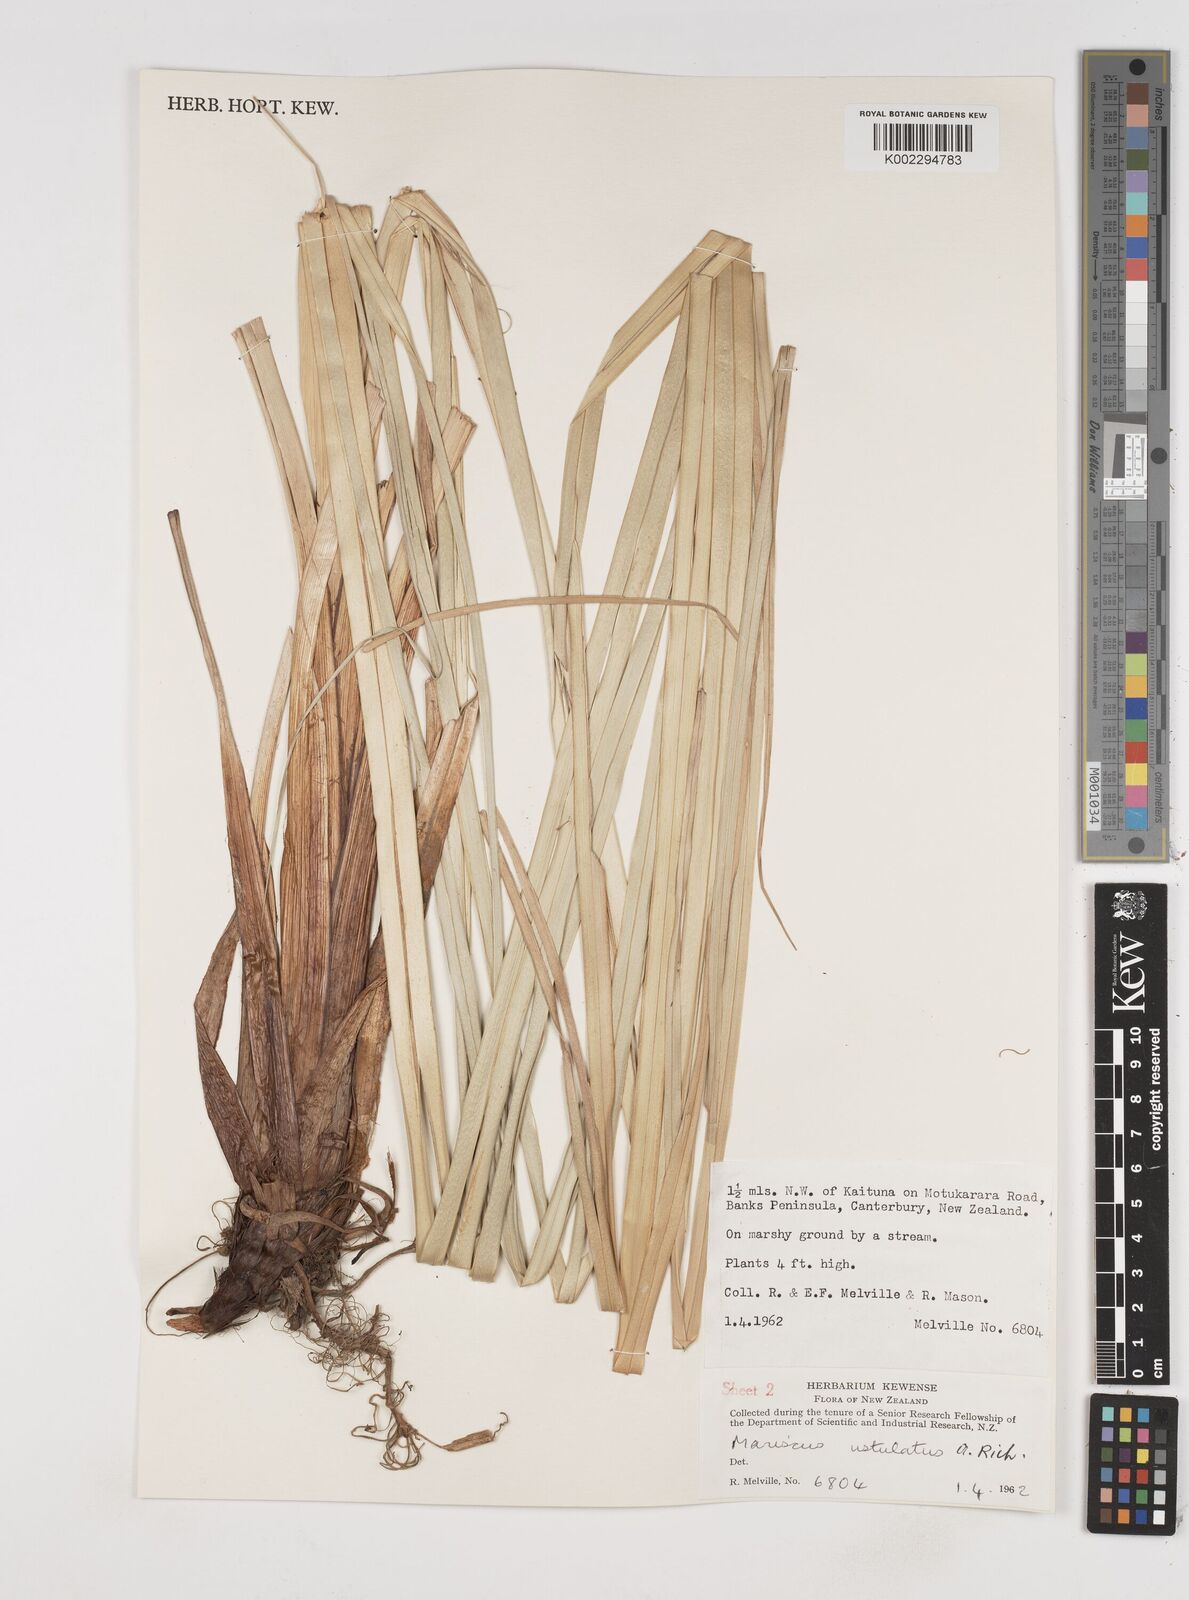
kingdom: Plantae
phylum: Tracheophyta
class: Liliopsida
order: Poales
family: Cyperaceae
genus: Cyperus
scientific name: Cyperus ustulatus
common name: Giant umbrella-sedge
